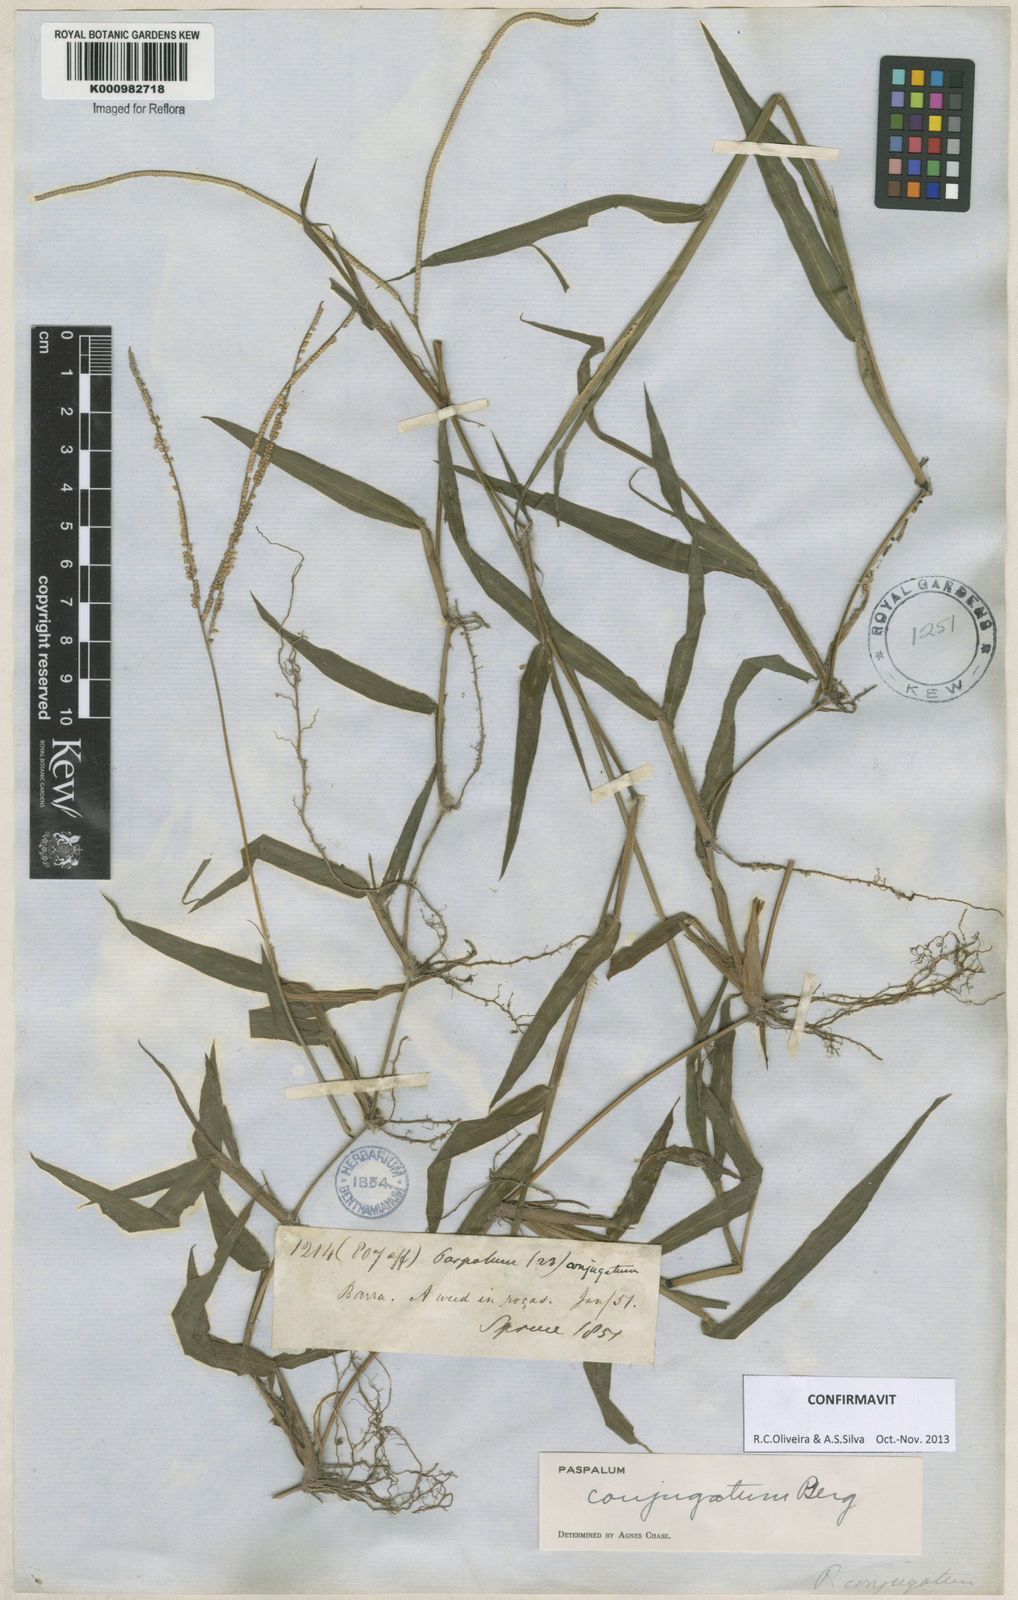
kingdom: Plantae
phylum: Tracheophyta
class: Liliopsida
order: Poales
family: Poaceae
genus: Paspalum
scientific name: Paspalum conjugatum
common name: Hilograss
